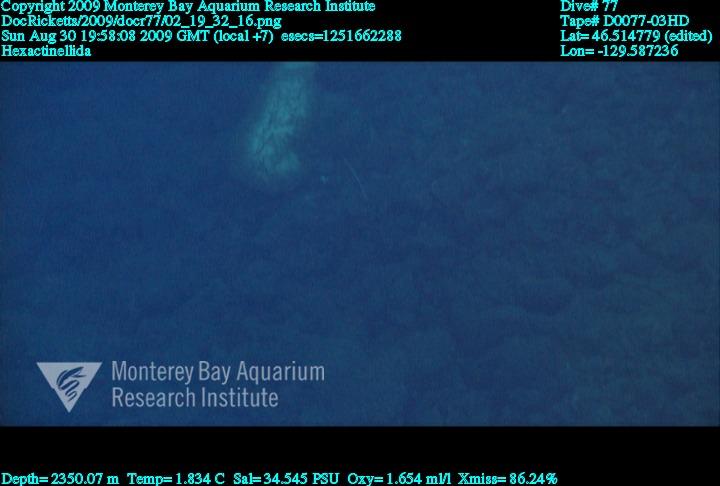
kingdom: Animalia
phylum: Porifera
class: Hexactinellida
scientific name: Hexactinellida
